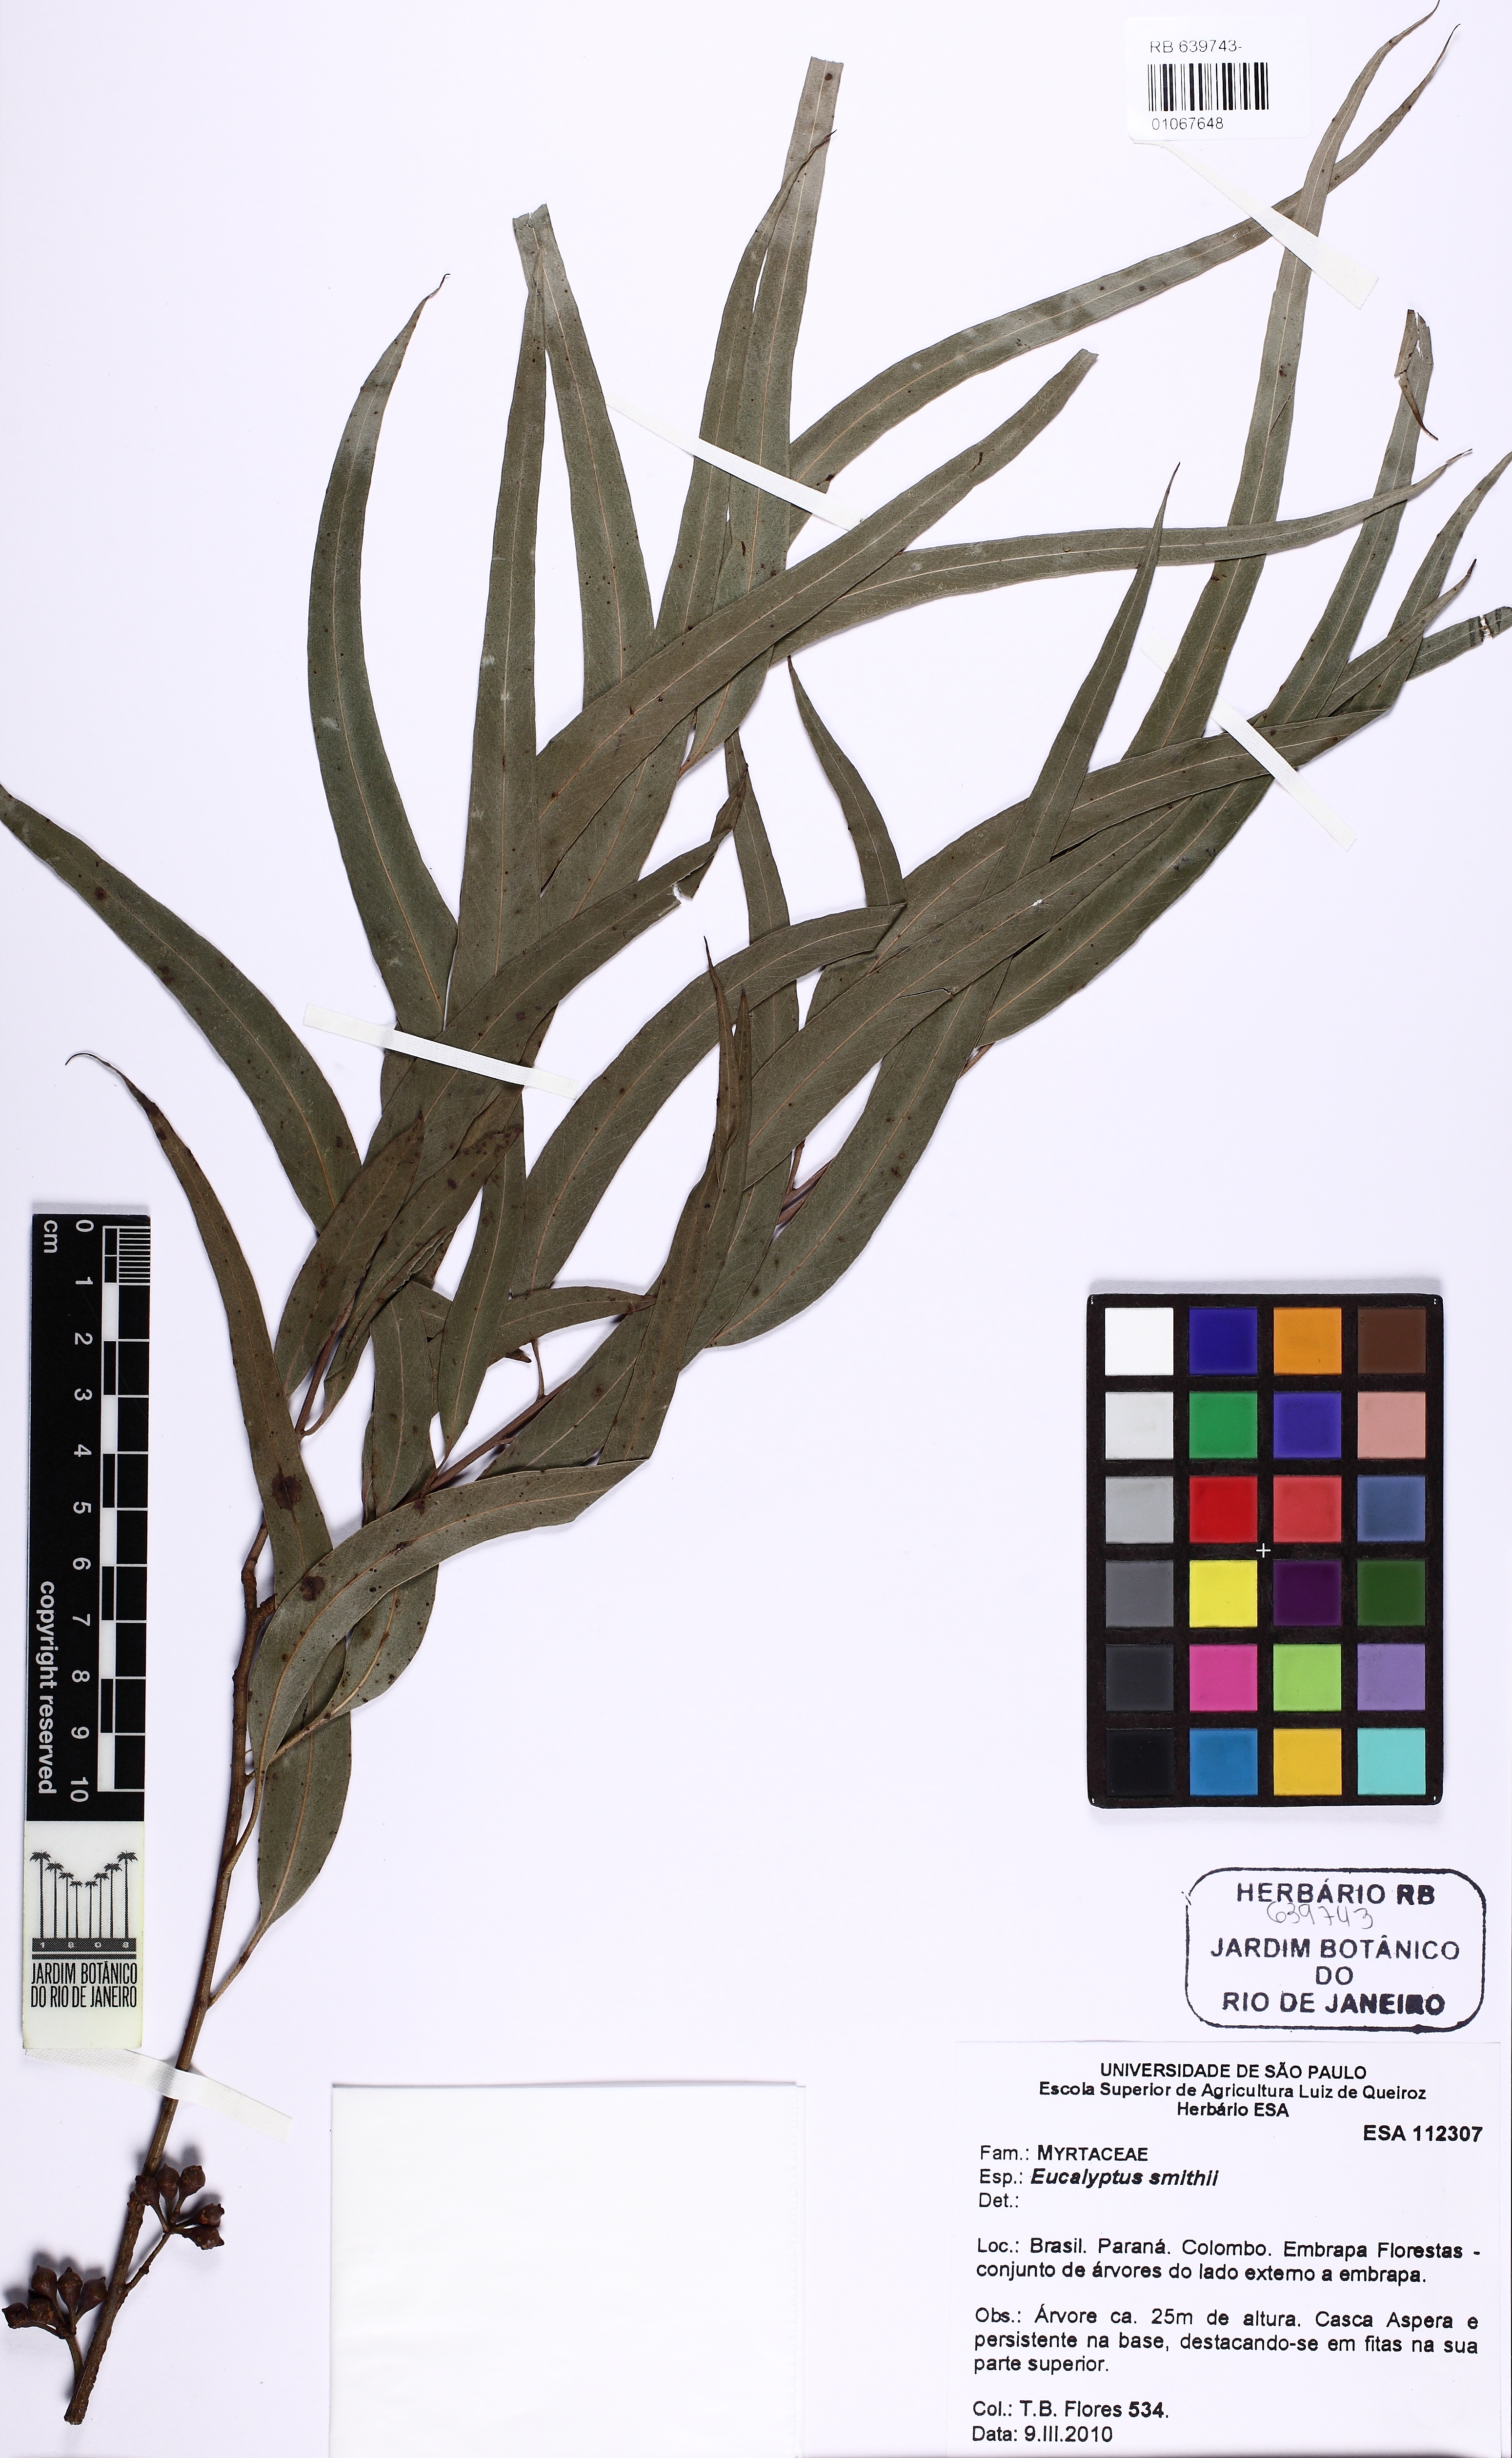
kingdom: Plantae
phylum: Tracheophyta
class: Magnoliopsida
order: Myrtales
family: Myrtaceae
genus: Eucalyptus
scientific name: Eucalyptus smithii
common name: Blackbutt-peppermint
